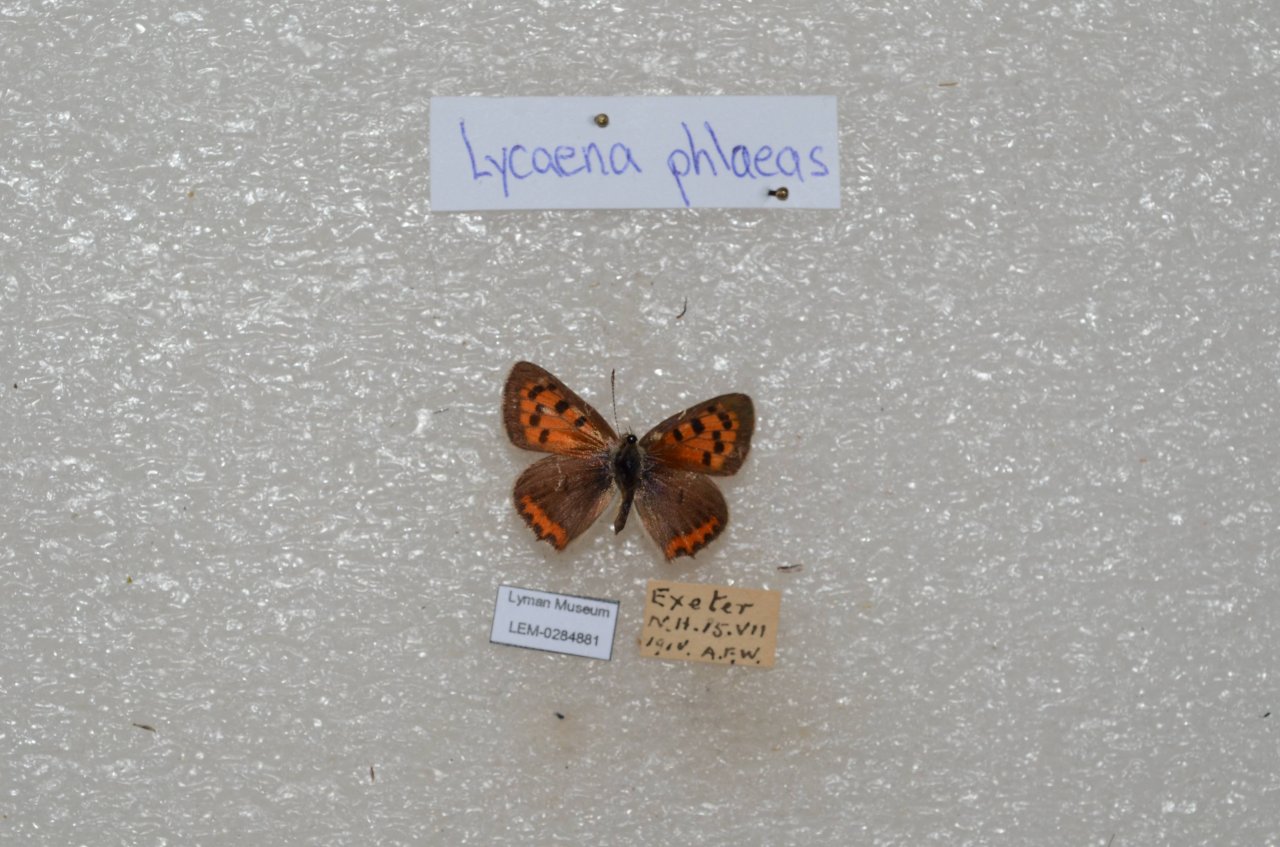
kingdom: Animalia
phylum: Arthropoda
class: Insecta
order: Lepidoptera
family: Lycaenidae
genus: Lycaena
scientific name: Lycaena phlaeas
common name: American Copper
